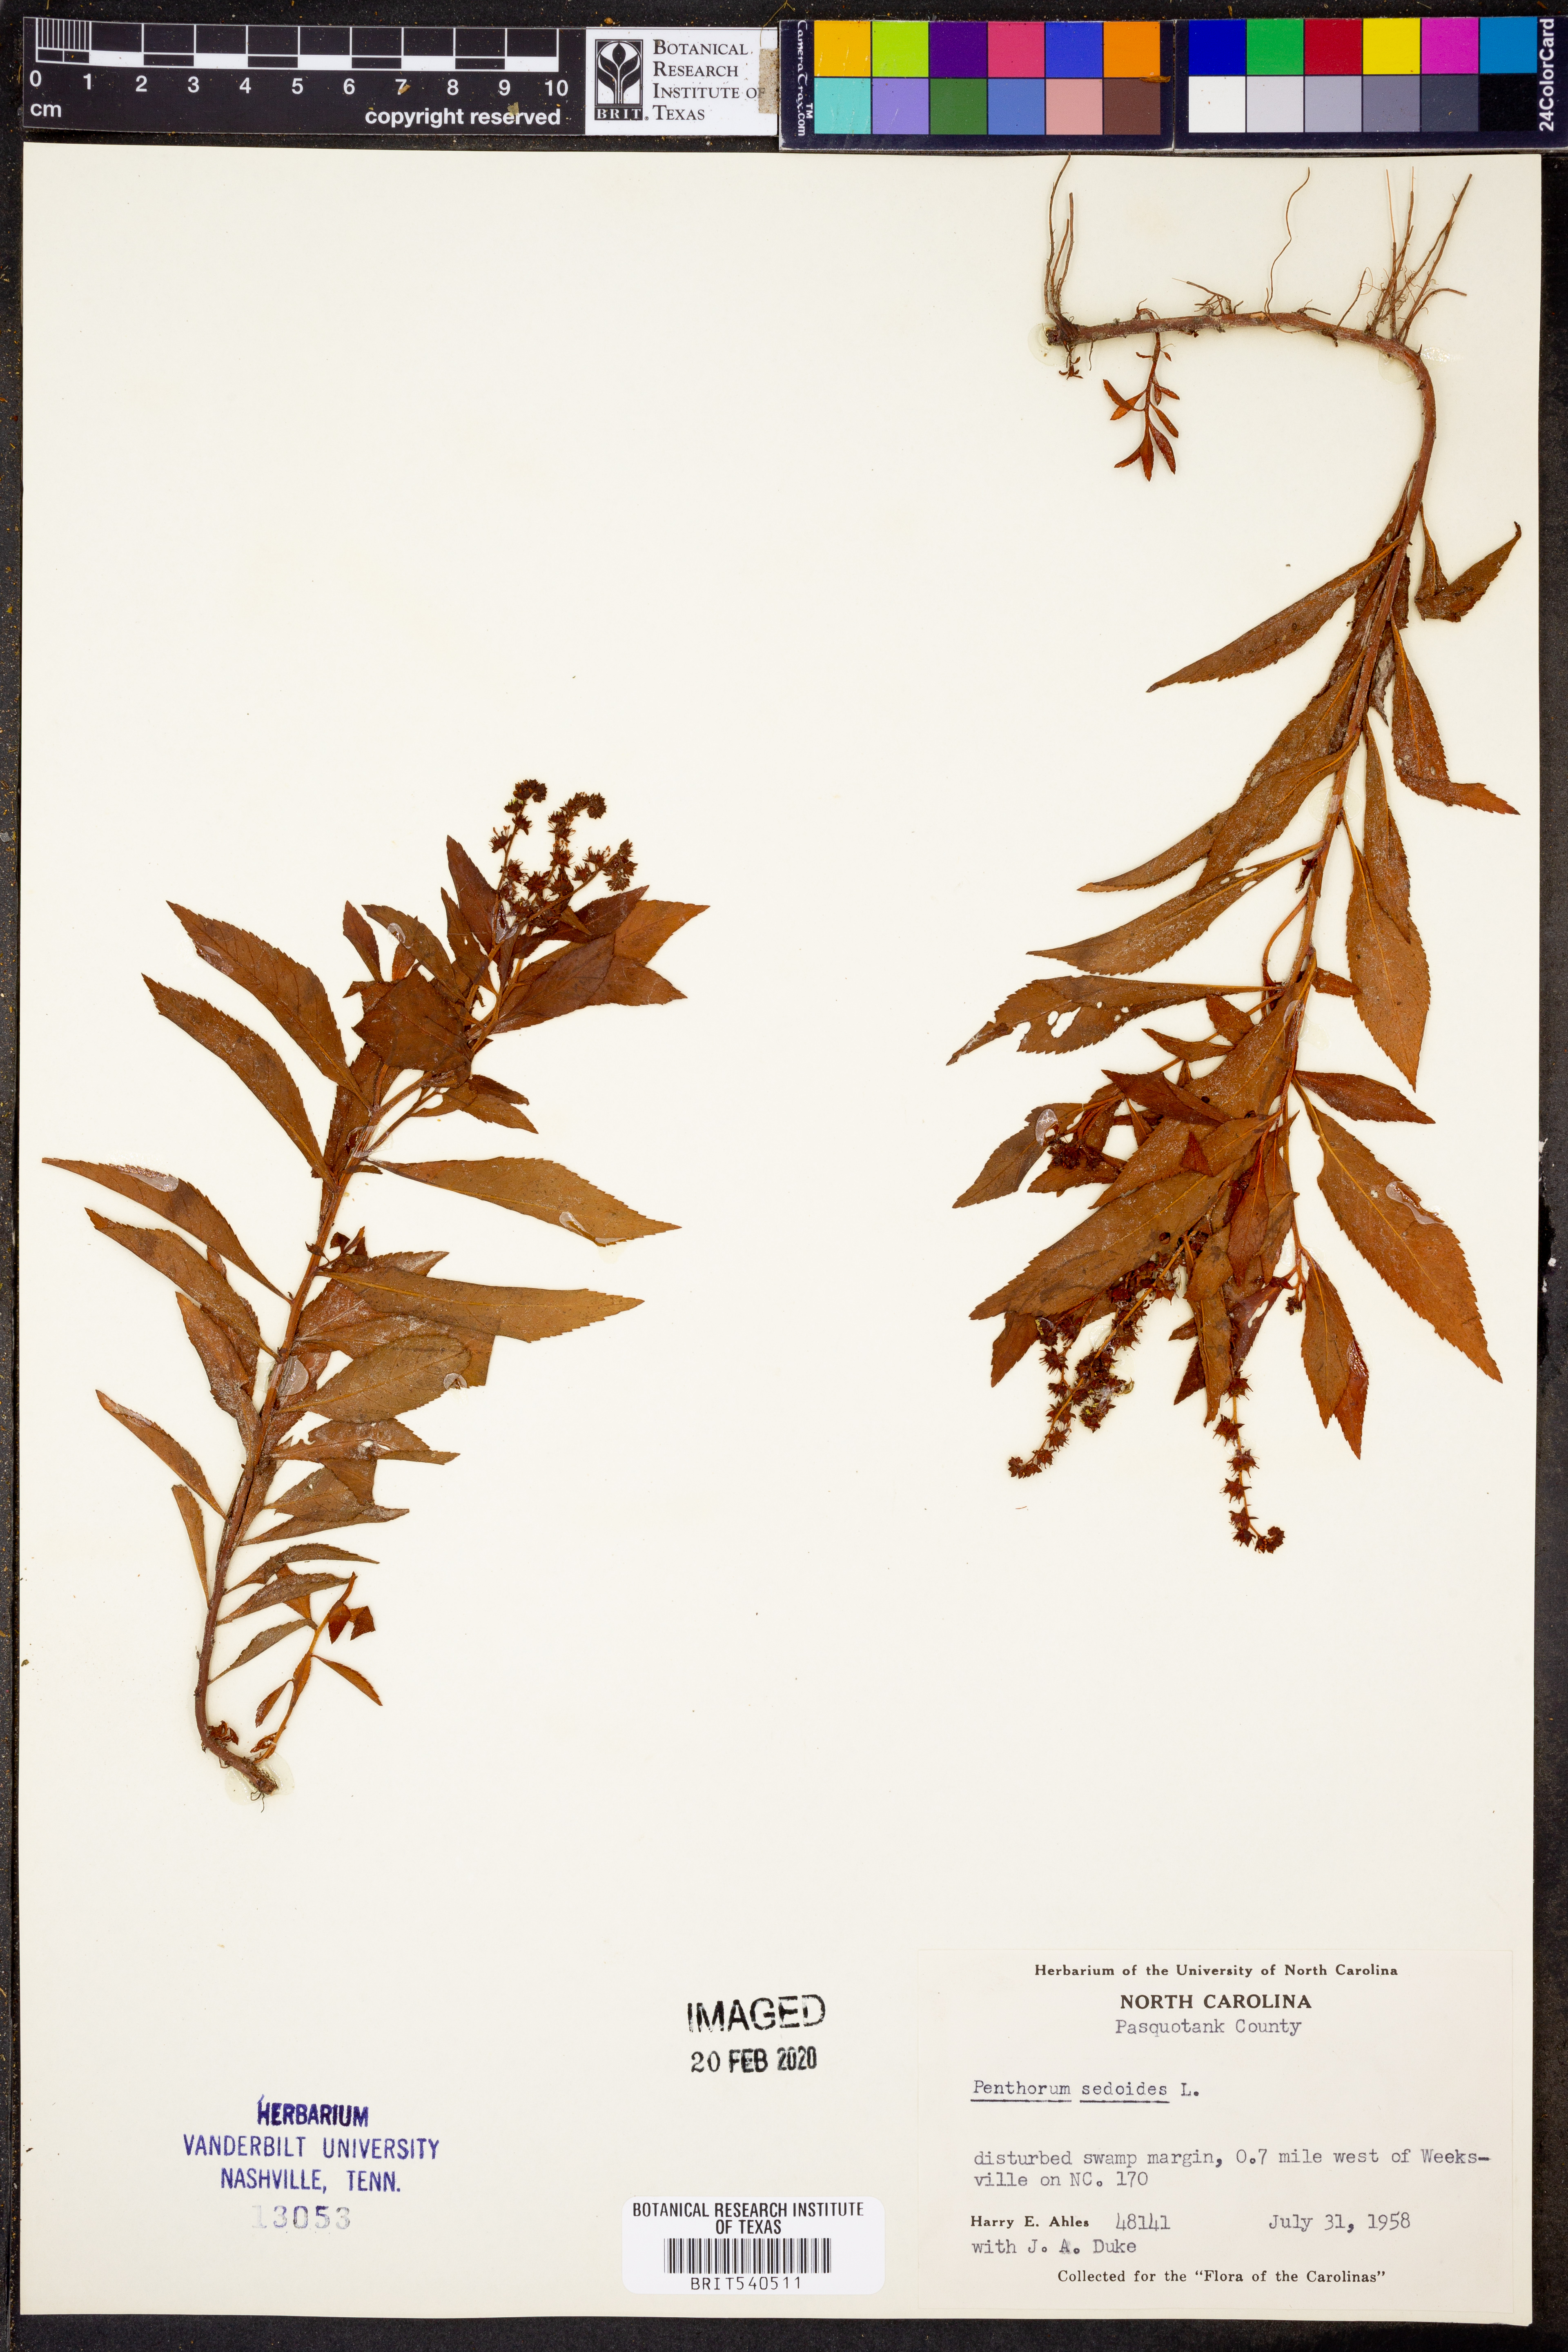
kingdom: Plantae
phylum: Tracheophyta
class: Magnoliopsida
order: Saxifragales
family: Penthoraceae
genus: Penthorum
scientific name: Penthorum sedoides
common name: Ditch stonecrop
